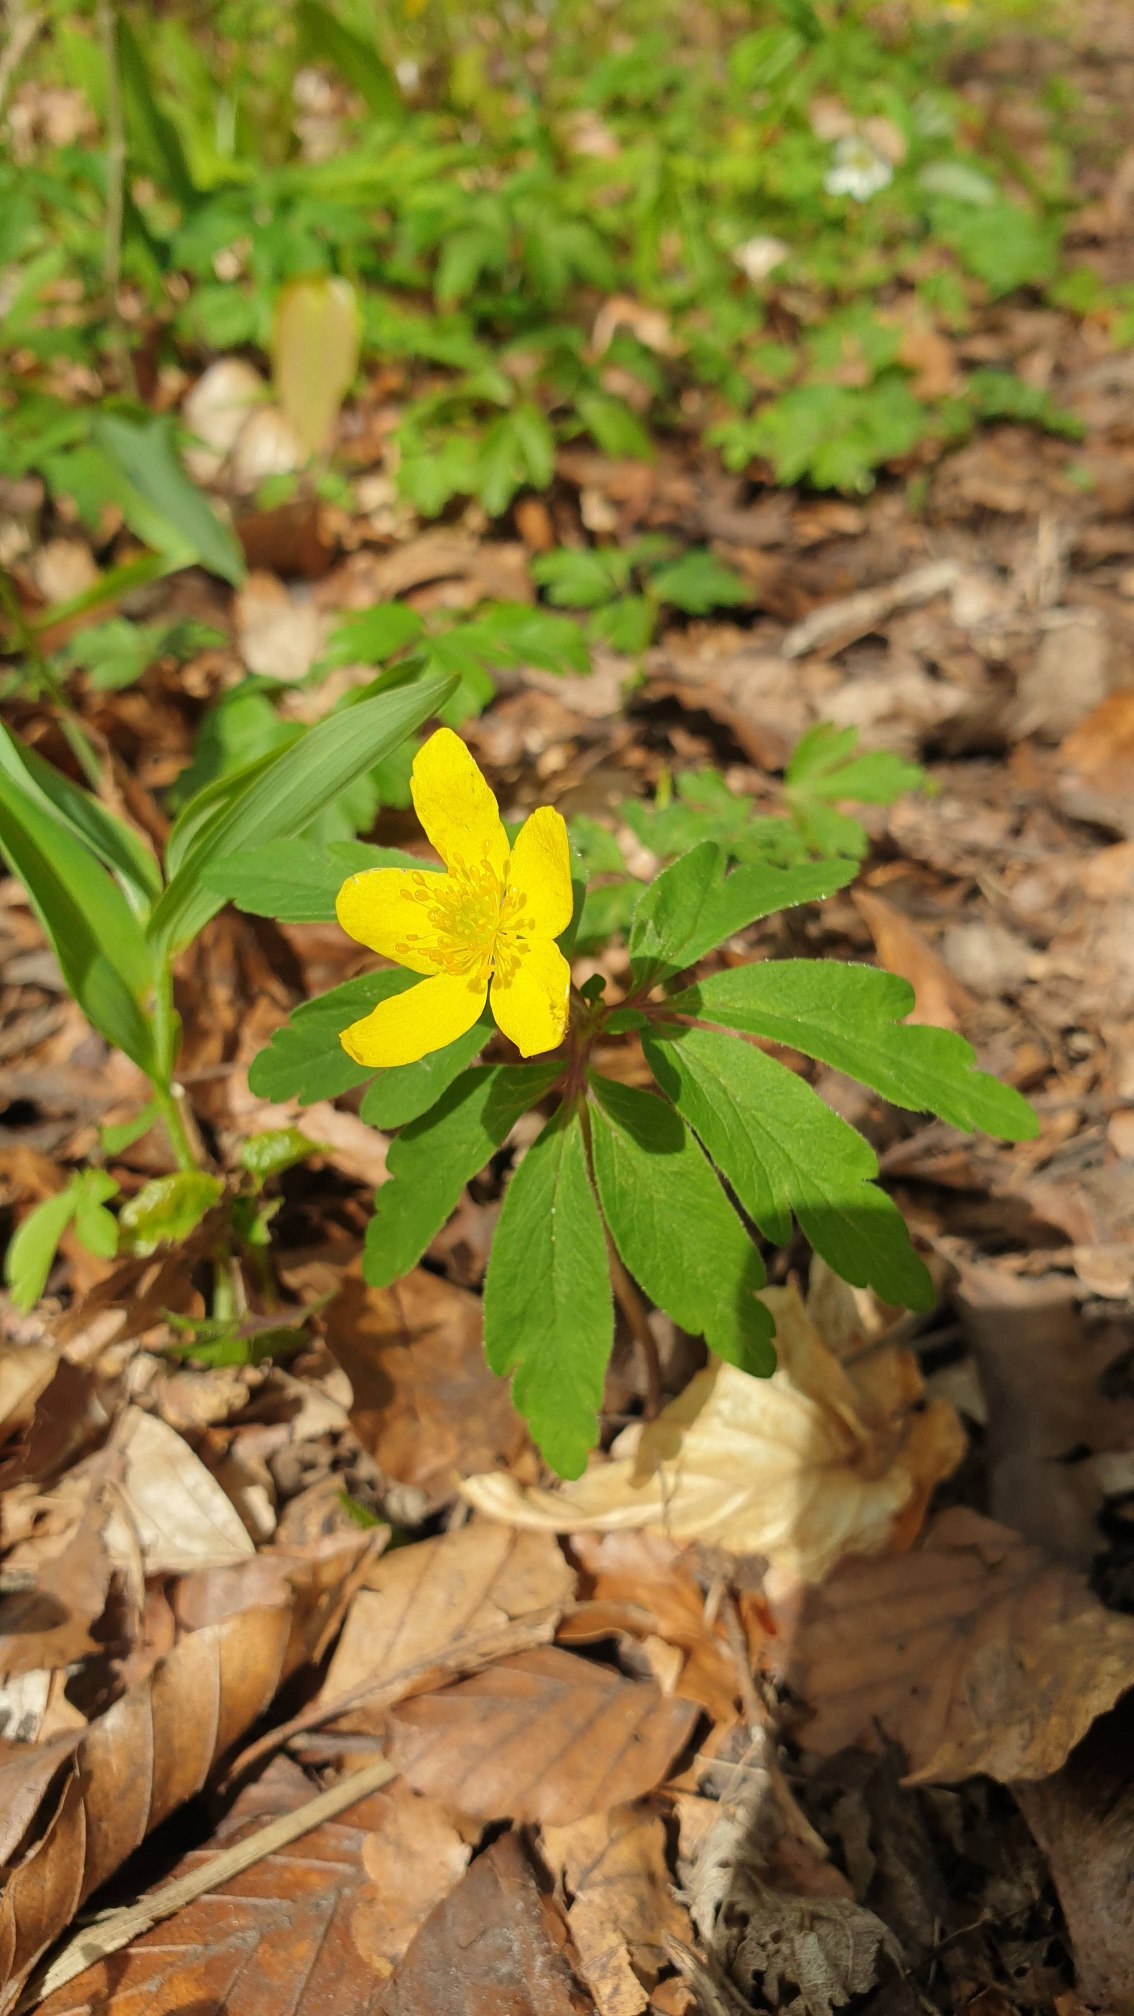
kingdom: Plantae
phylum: Tracheophyta
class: Magnoliopsida
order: Ranunculales
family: Ranunculaceae
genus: Anemone
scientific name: Anemone ranunculoides
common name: Gul anemone
